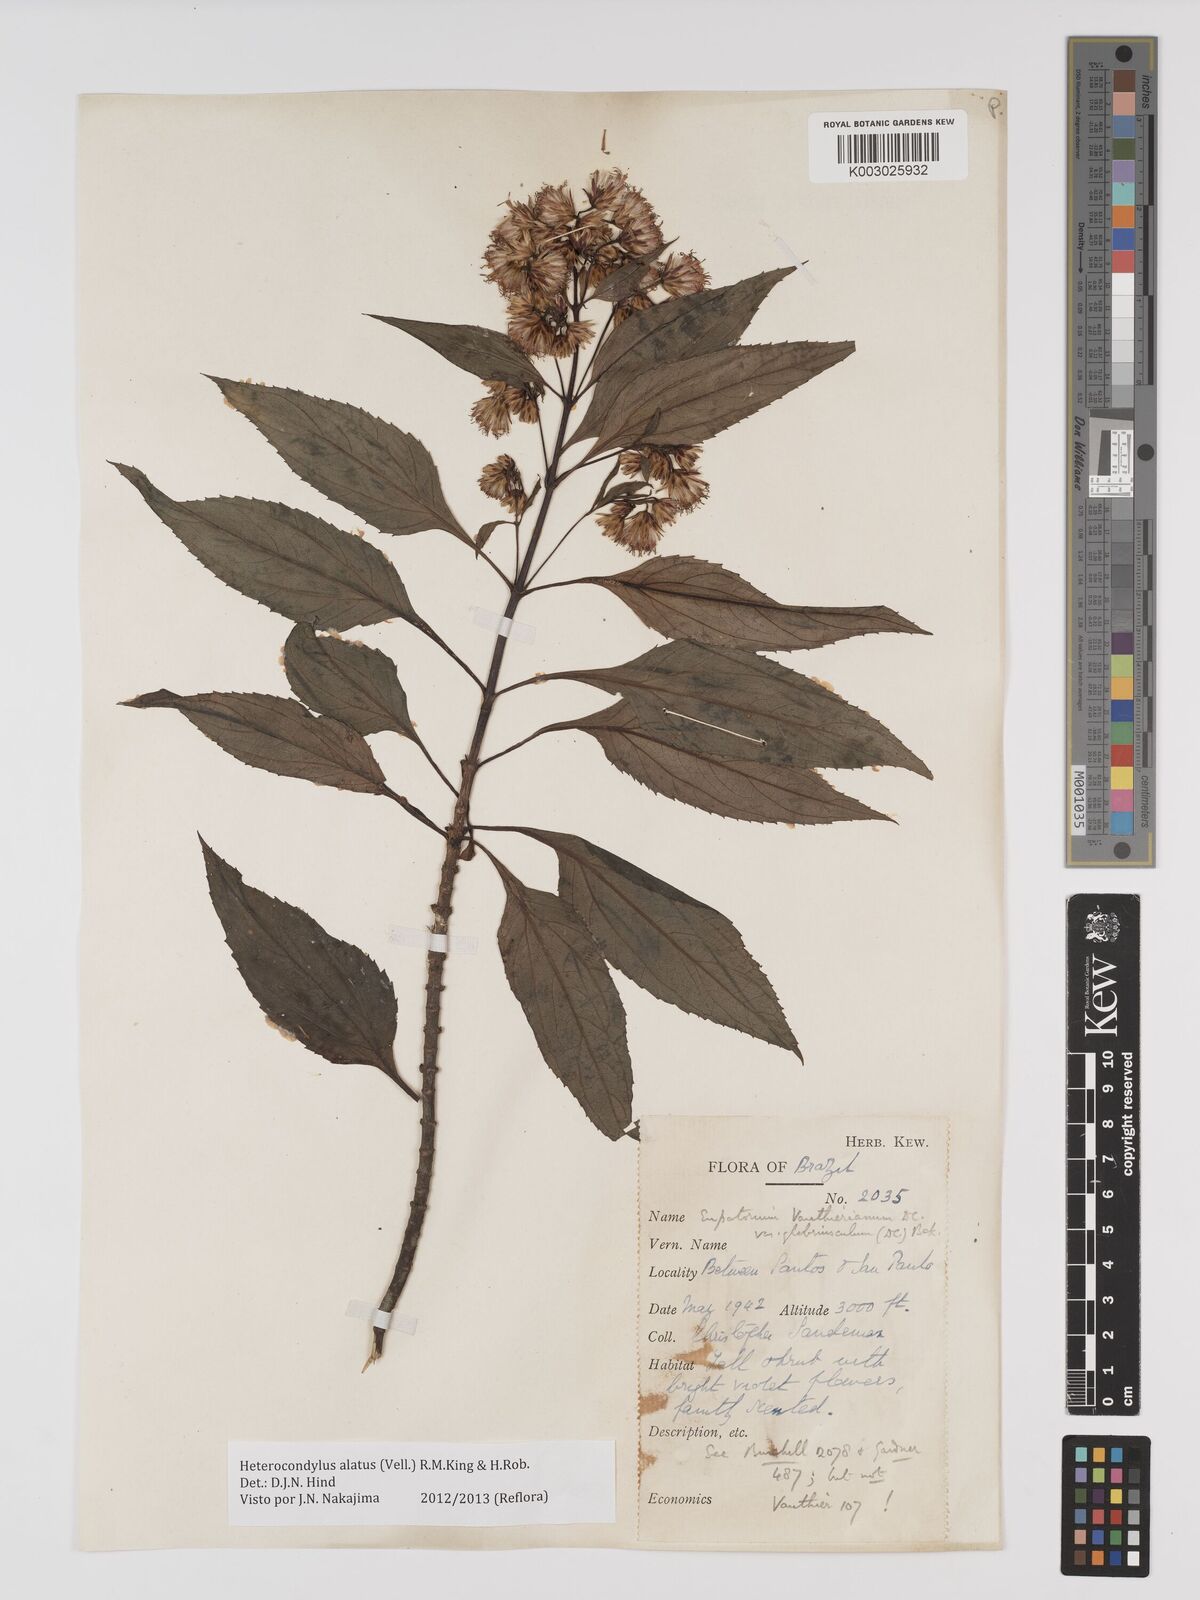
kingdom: Plantae
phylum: Tracheophyta
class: Magnoliopsida
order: Asterales
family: Asteraceae
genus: Heterocondylus
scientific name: Heterocondylus alatus
